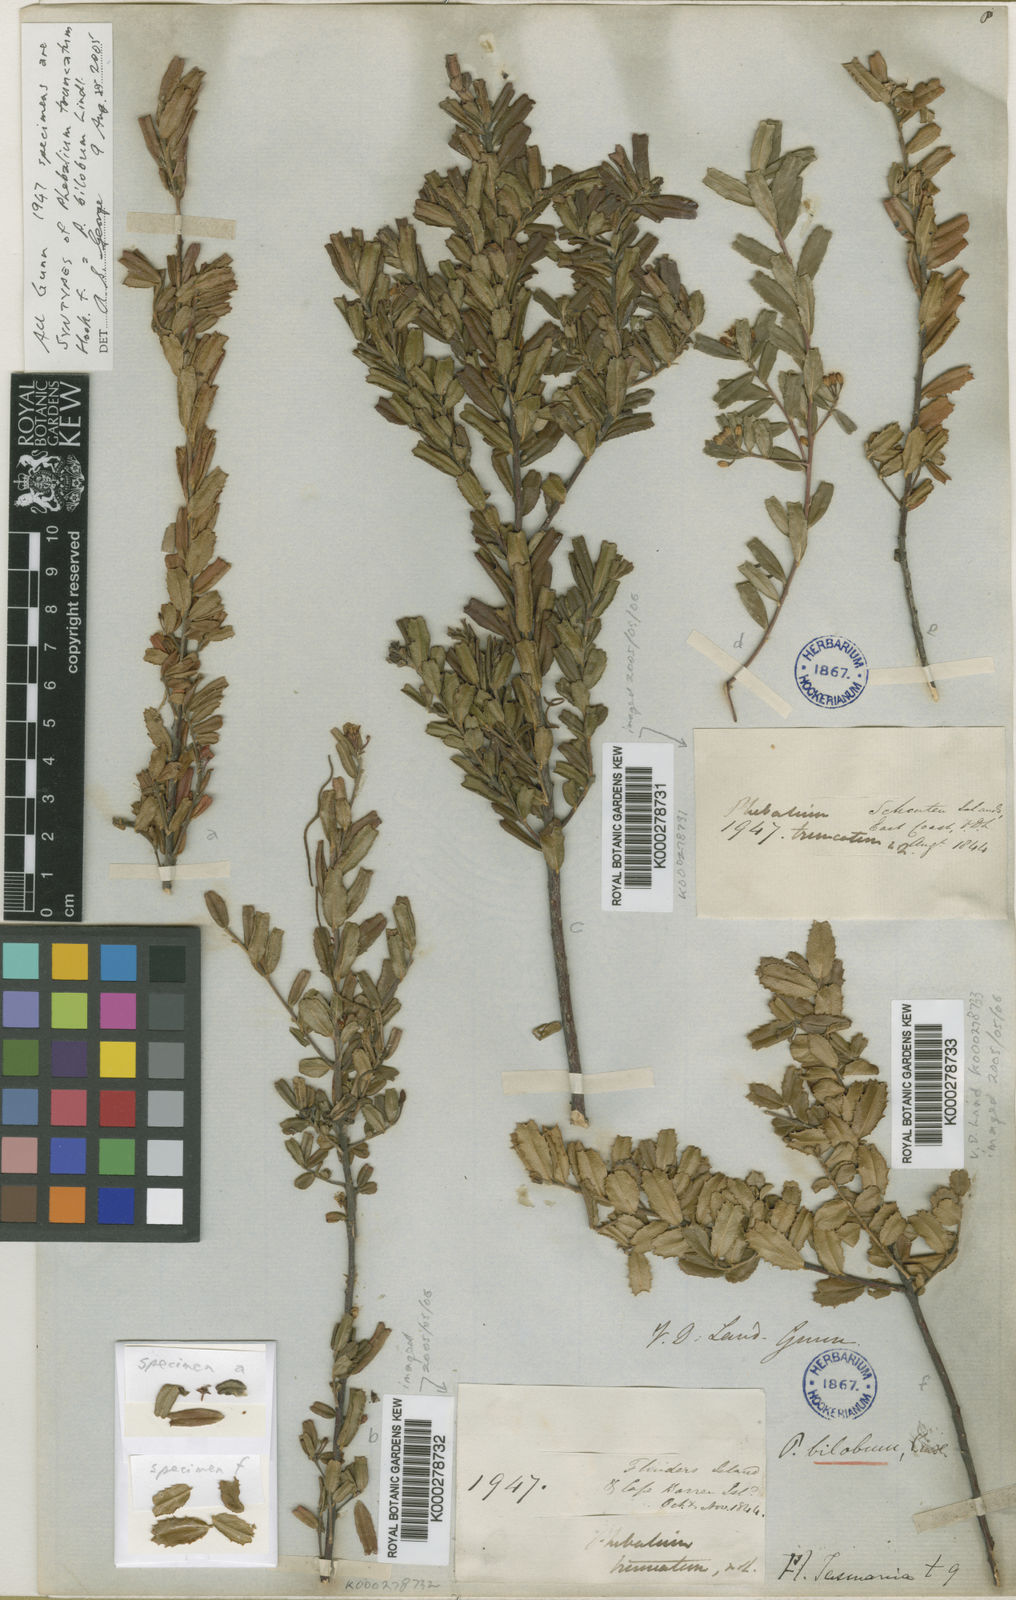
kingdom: Plantae
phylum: Tracheophyta
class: Magnoliopsida
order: Sapindales
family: Rutaceae
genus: Leionema
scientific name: Leionema bilobum
